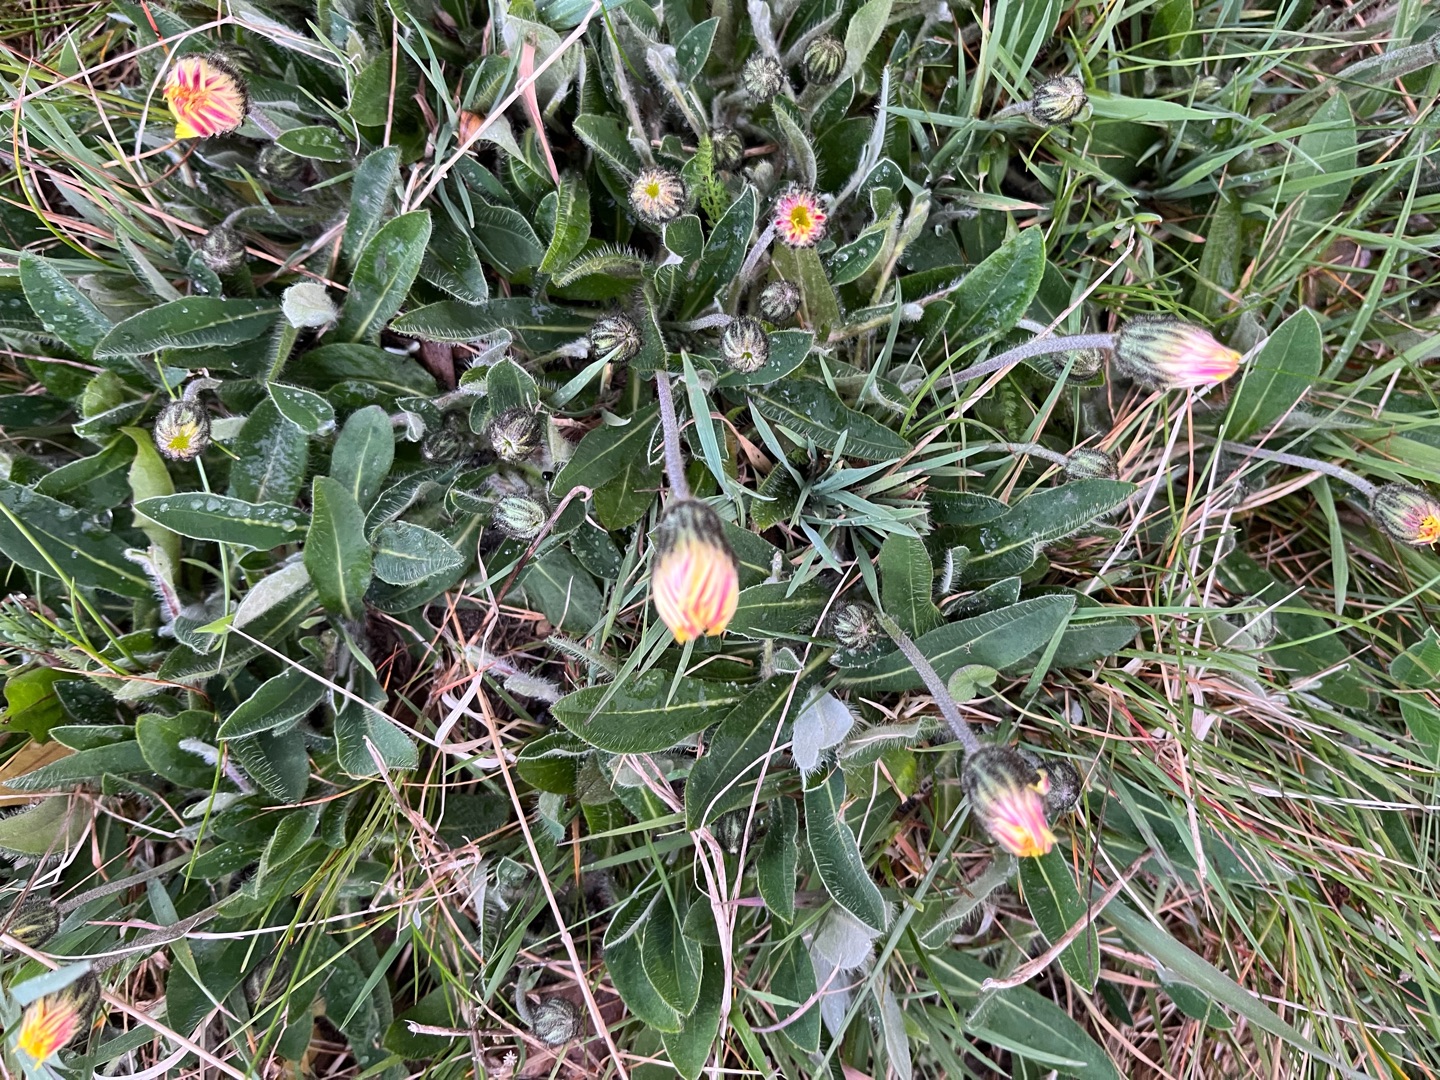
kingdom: Plantae
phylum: Tracheophyta
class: Magnoliopsida
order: Asterales
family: Asteraceae
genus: Pilosella
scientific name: Pilosella officinarum
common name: Håret høgeurt
